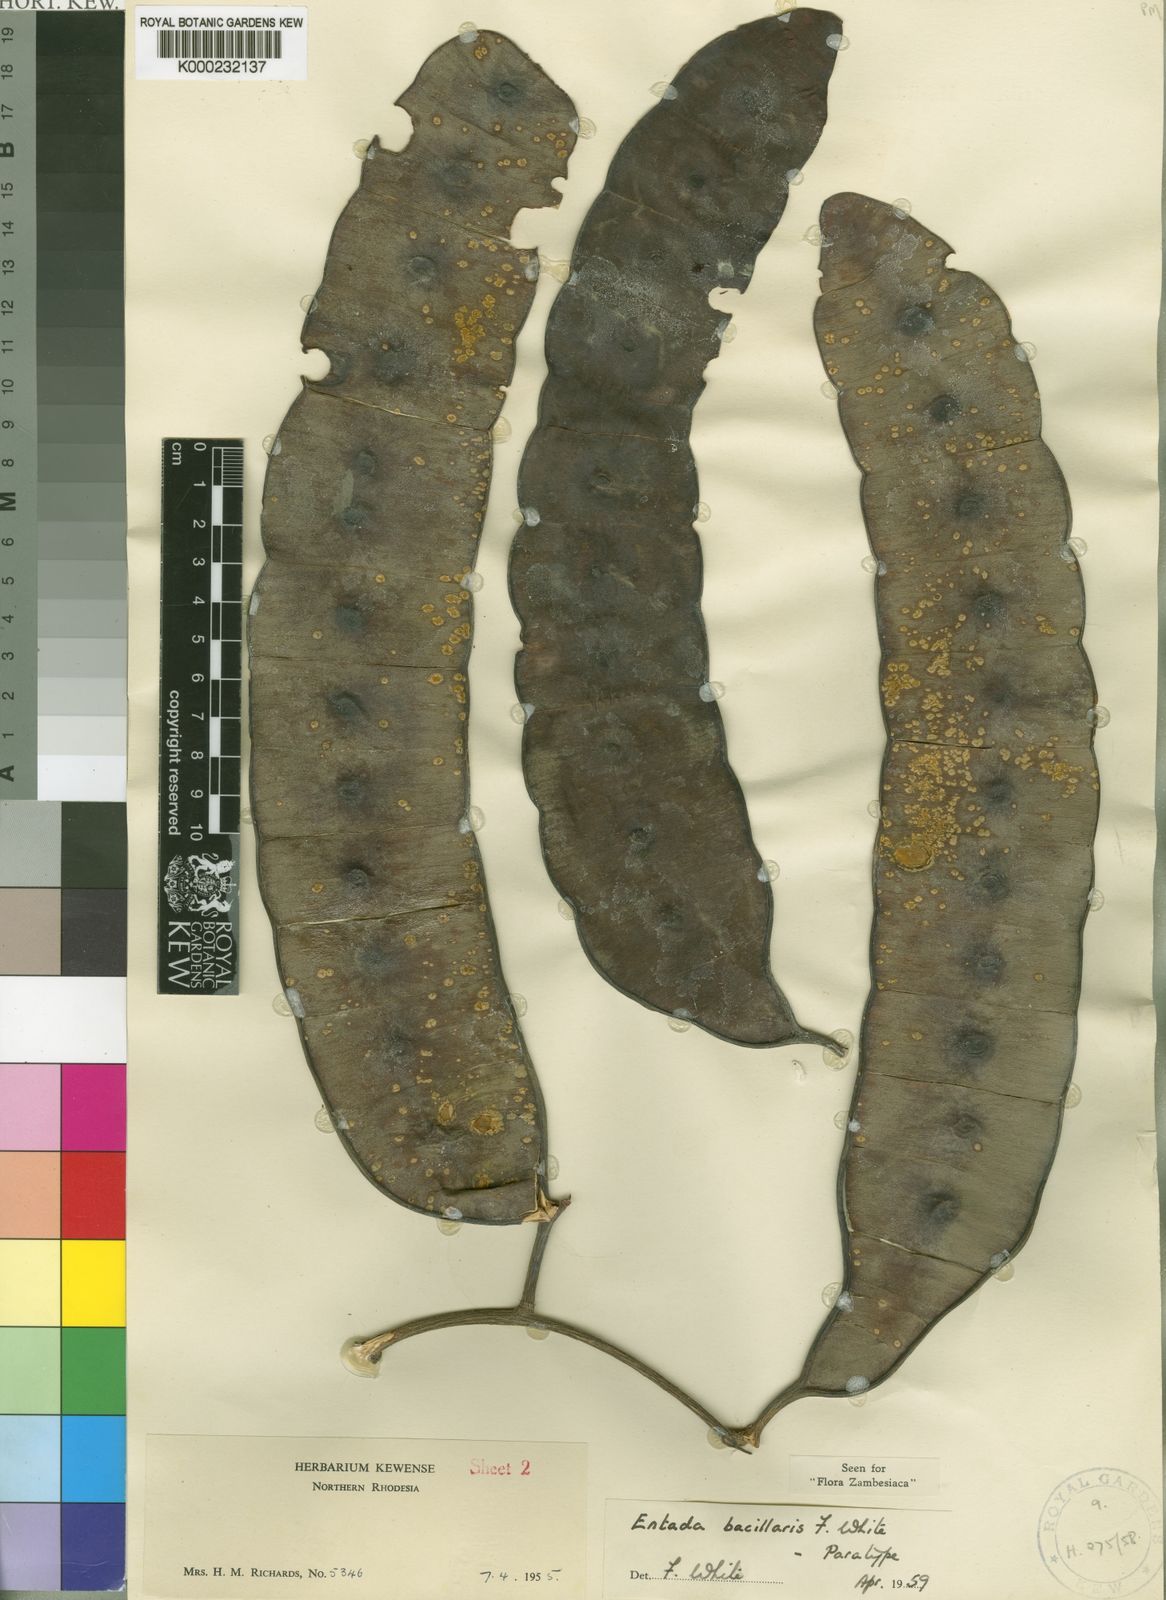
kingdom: Plantae
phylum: Tracheophyta
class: Magnoliopsida
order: Fabales
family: Fabaceae
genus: Entada
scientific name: Entada bacillaris
